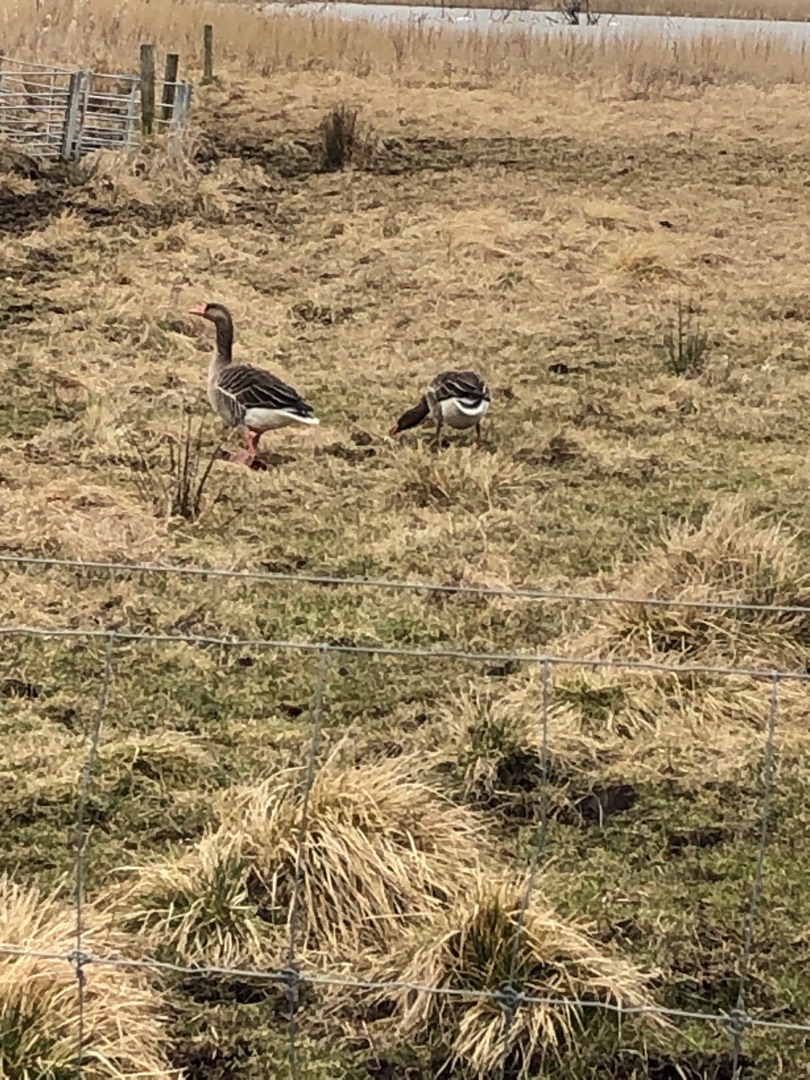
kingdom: Animalia
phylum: Chordata
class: Aves
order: Anseriformes
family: Anatidae
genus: Anser
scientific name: Anser anser
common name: Grågås
